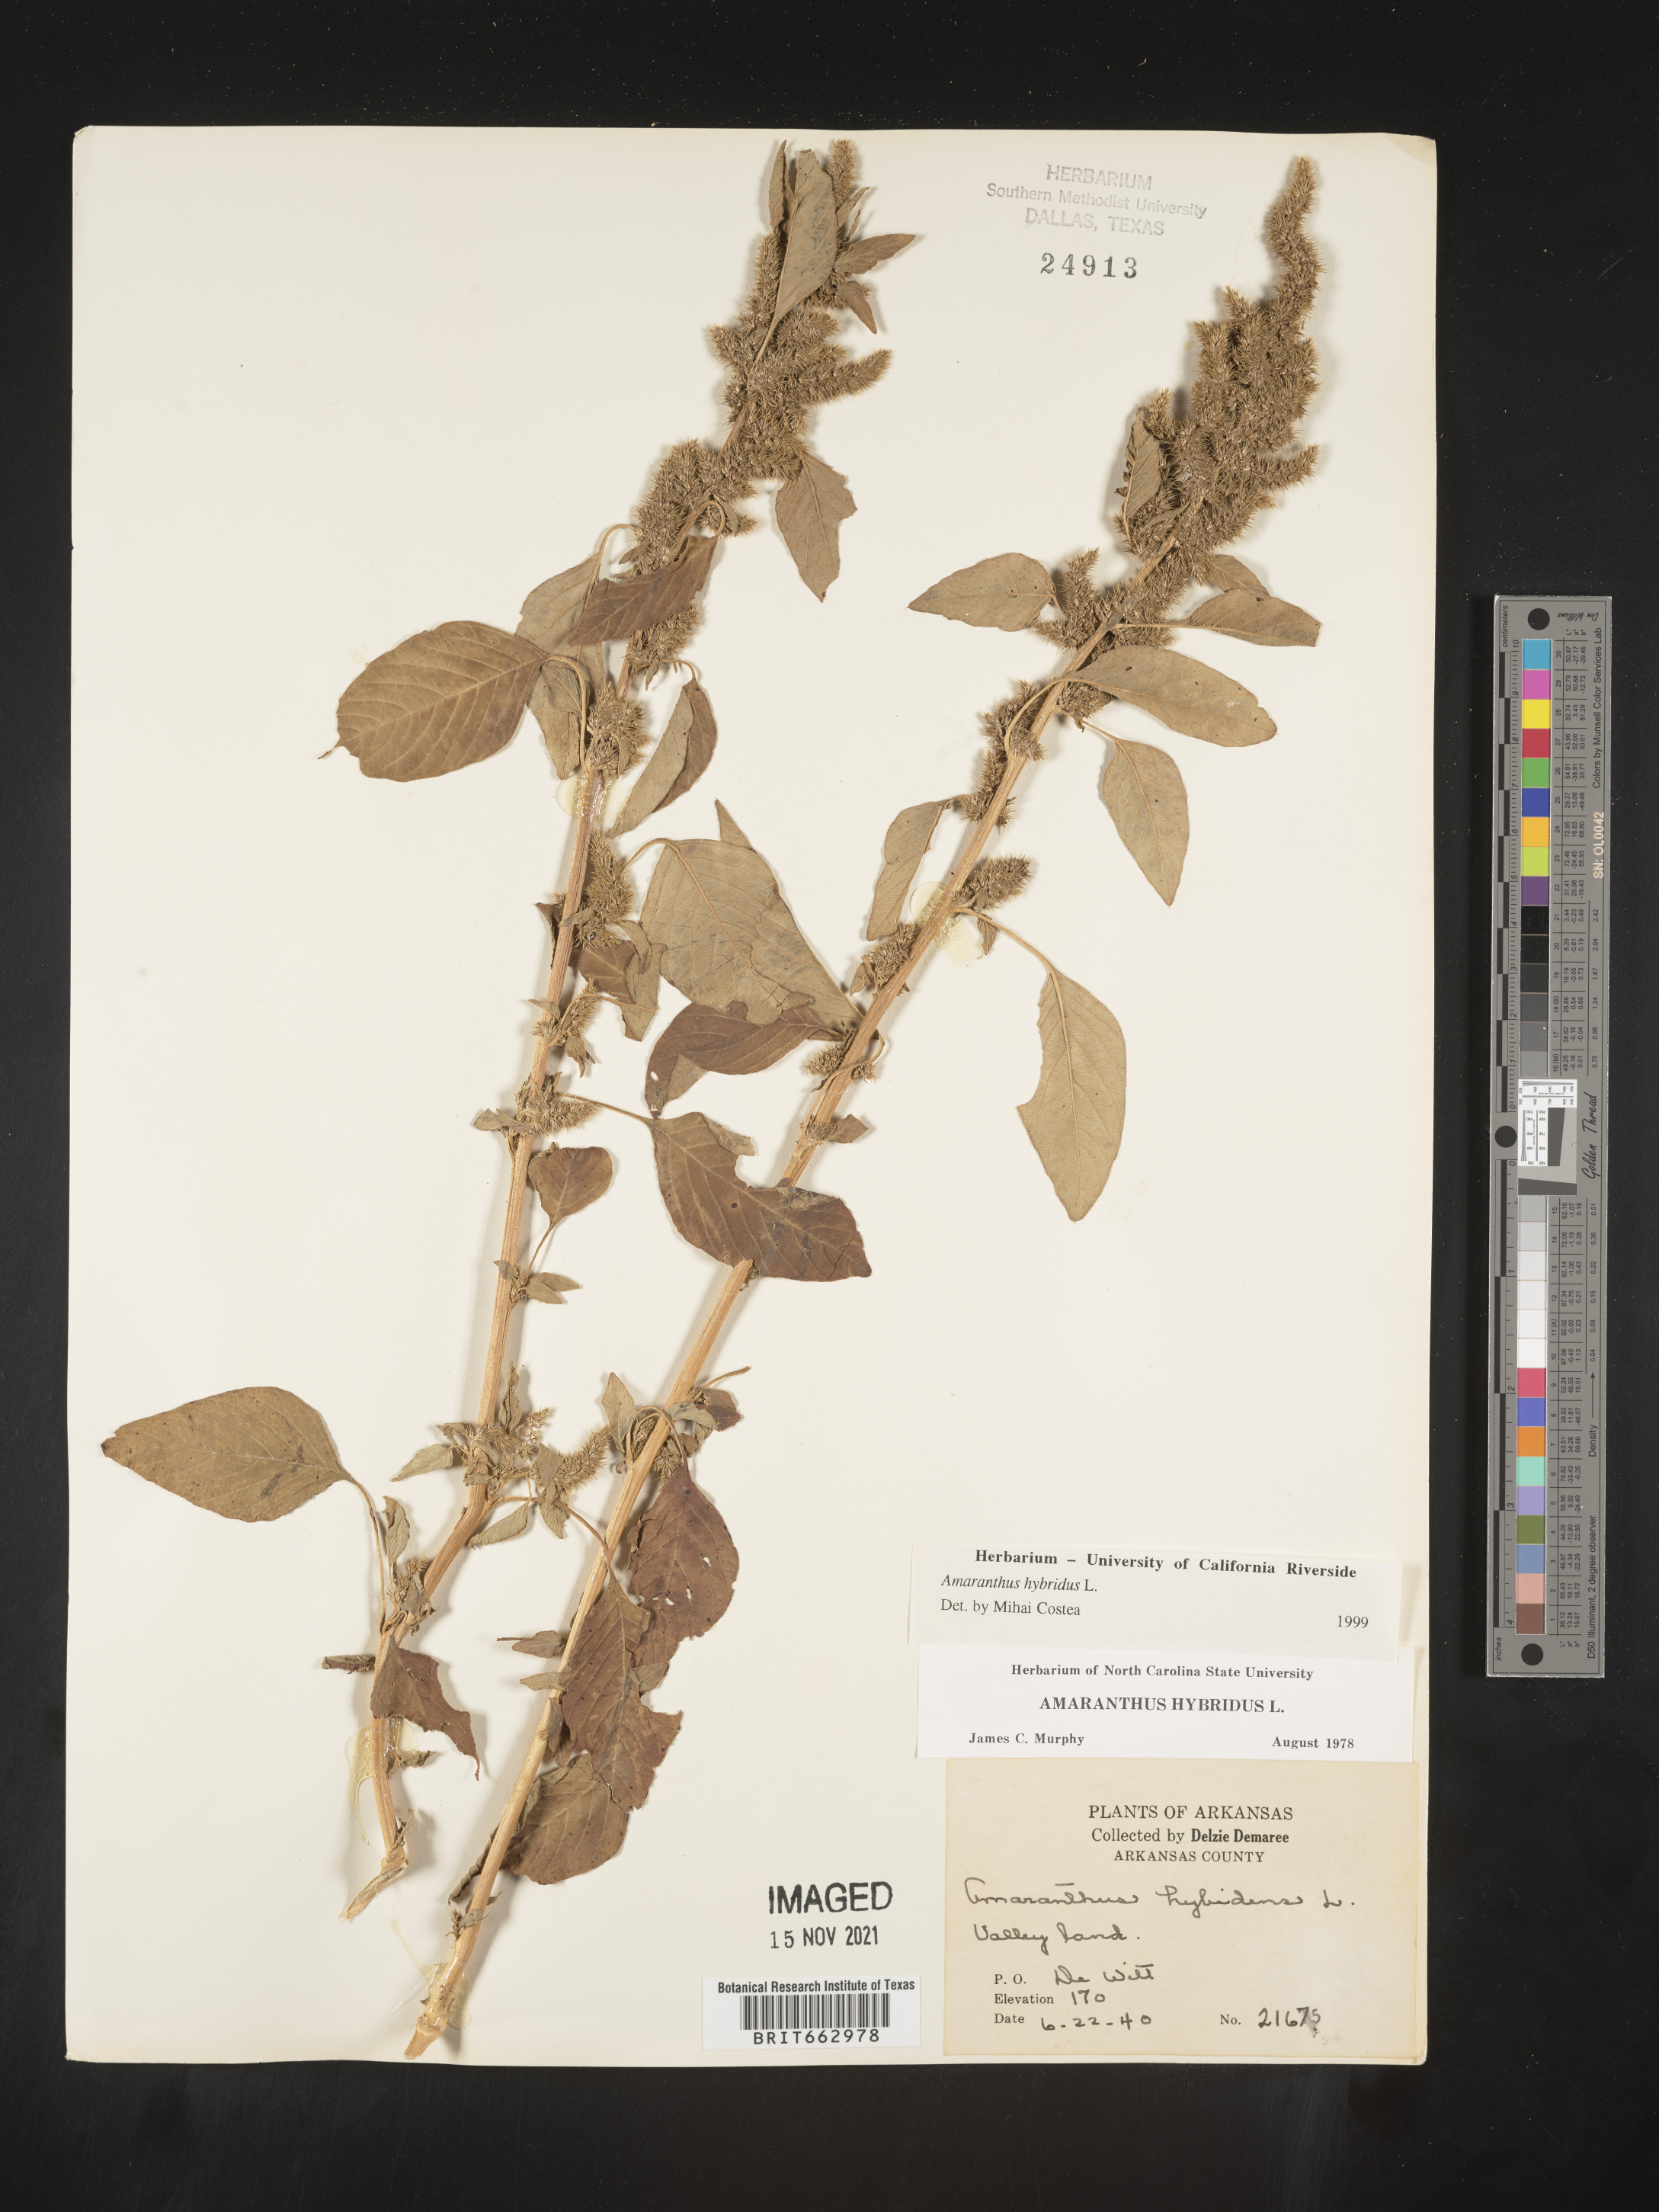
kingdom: Plantae
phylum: Tracheophyta
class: Magnoliopsida
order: Caryophyllales
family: Amaranthaceae
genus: Amaranthus
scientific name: Amaranthus hybridus
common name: Green amaranth
